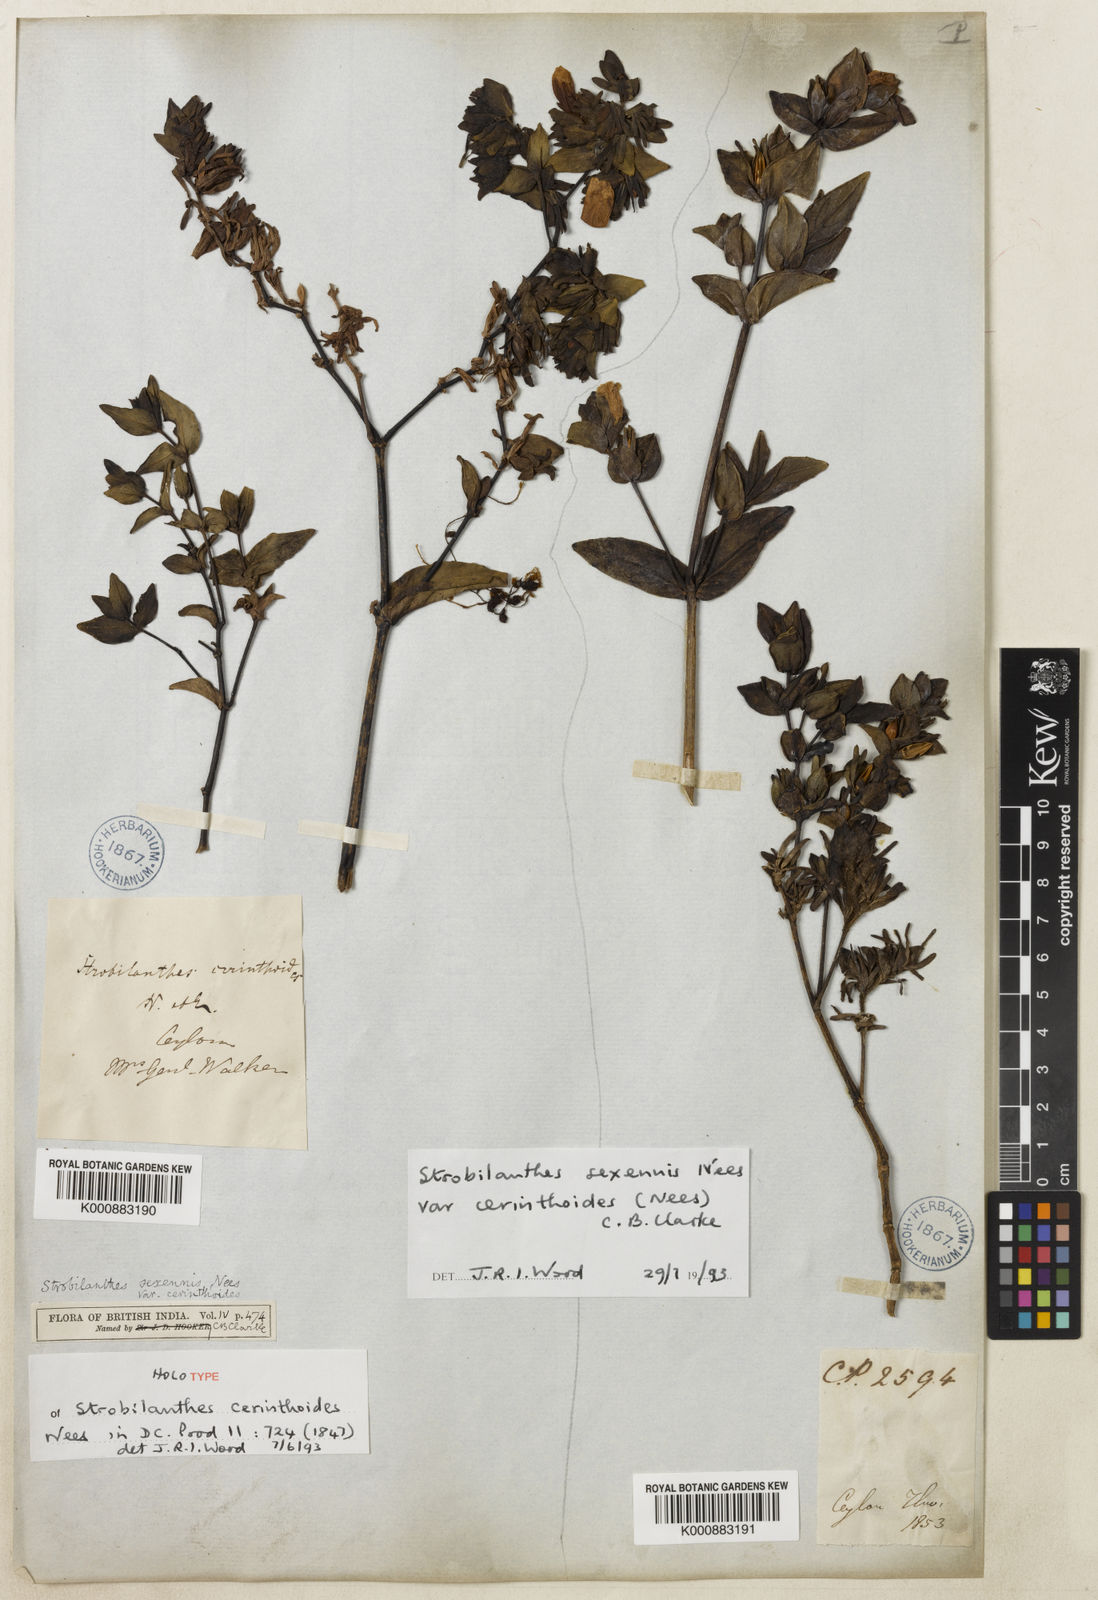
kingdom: Plantae
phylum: Tracheophyta
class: Magnoliopsida
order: Lamiales
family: Acanthaceae
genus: Strobilanthes
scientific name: Strobilanthes sexennis
